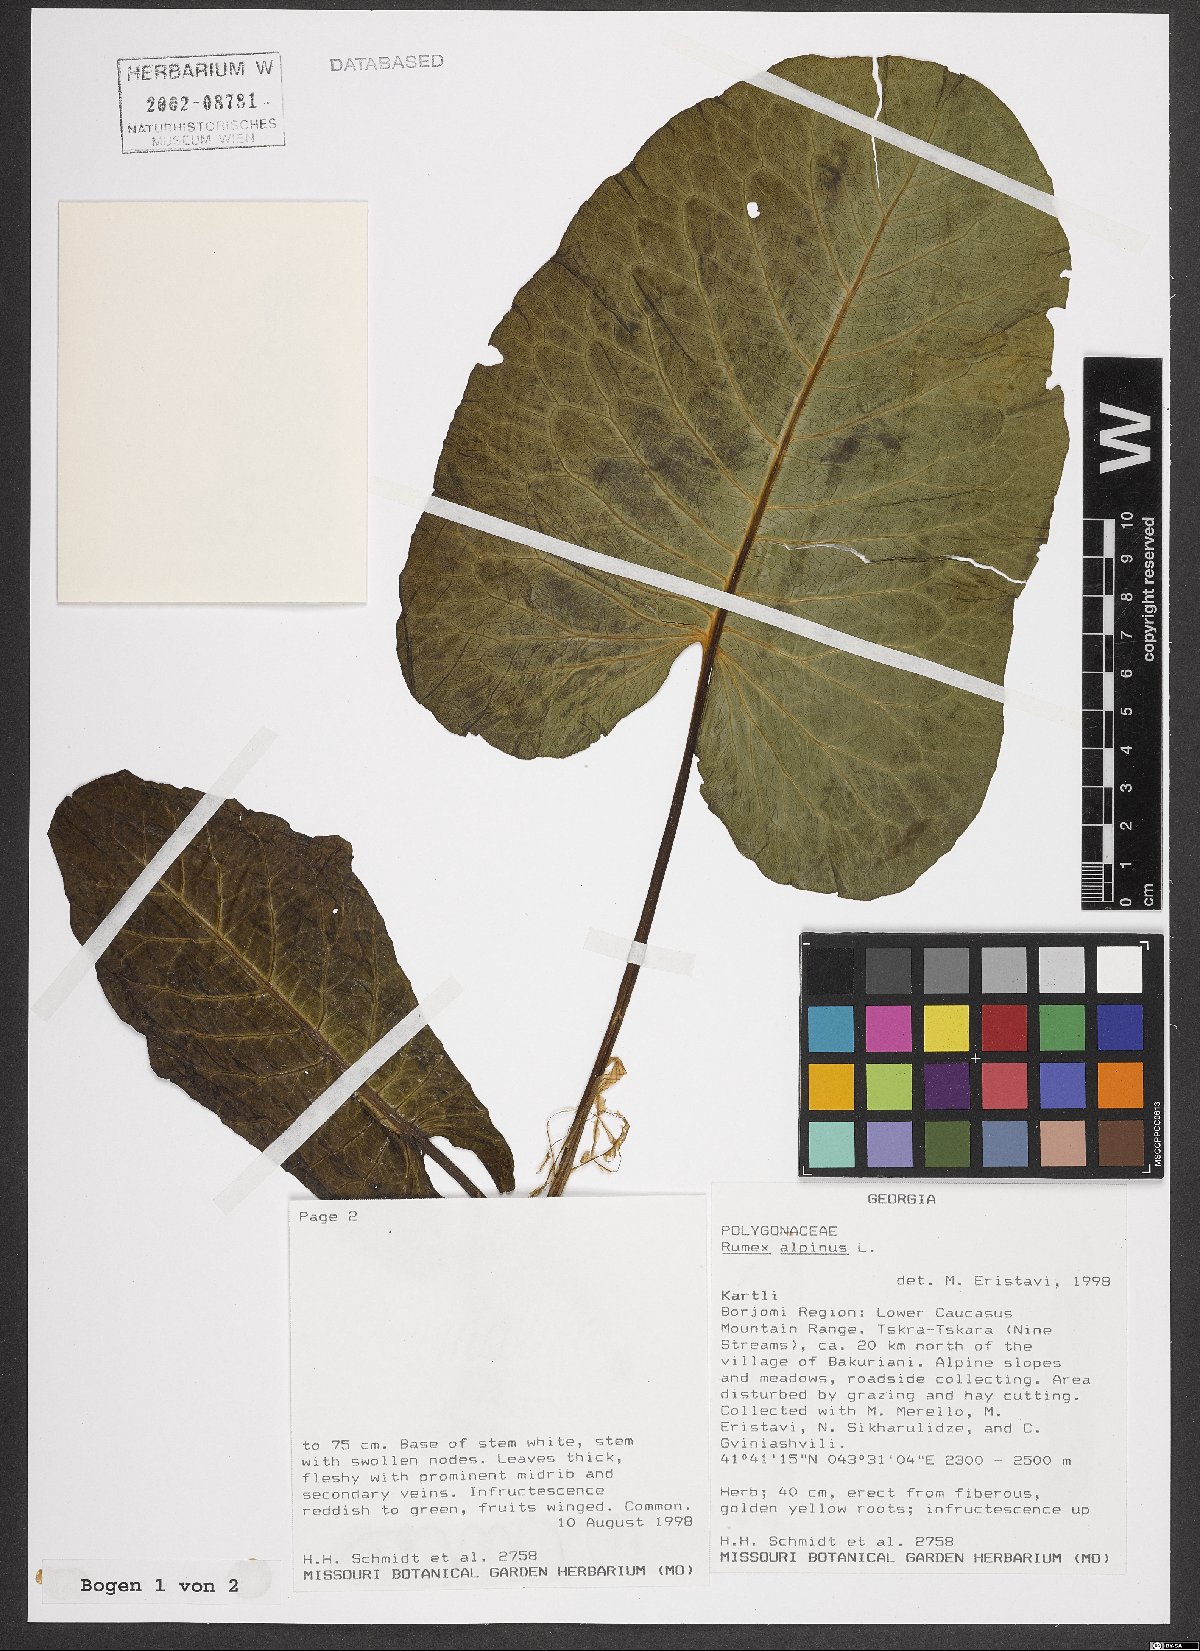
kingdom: Plantae
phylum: Tracheophyta
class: Magnoliopsida
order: Caryophyllales
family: Polygonaceae
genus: Rumex
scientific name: Rumex alpinus
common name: Alpine dock
